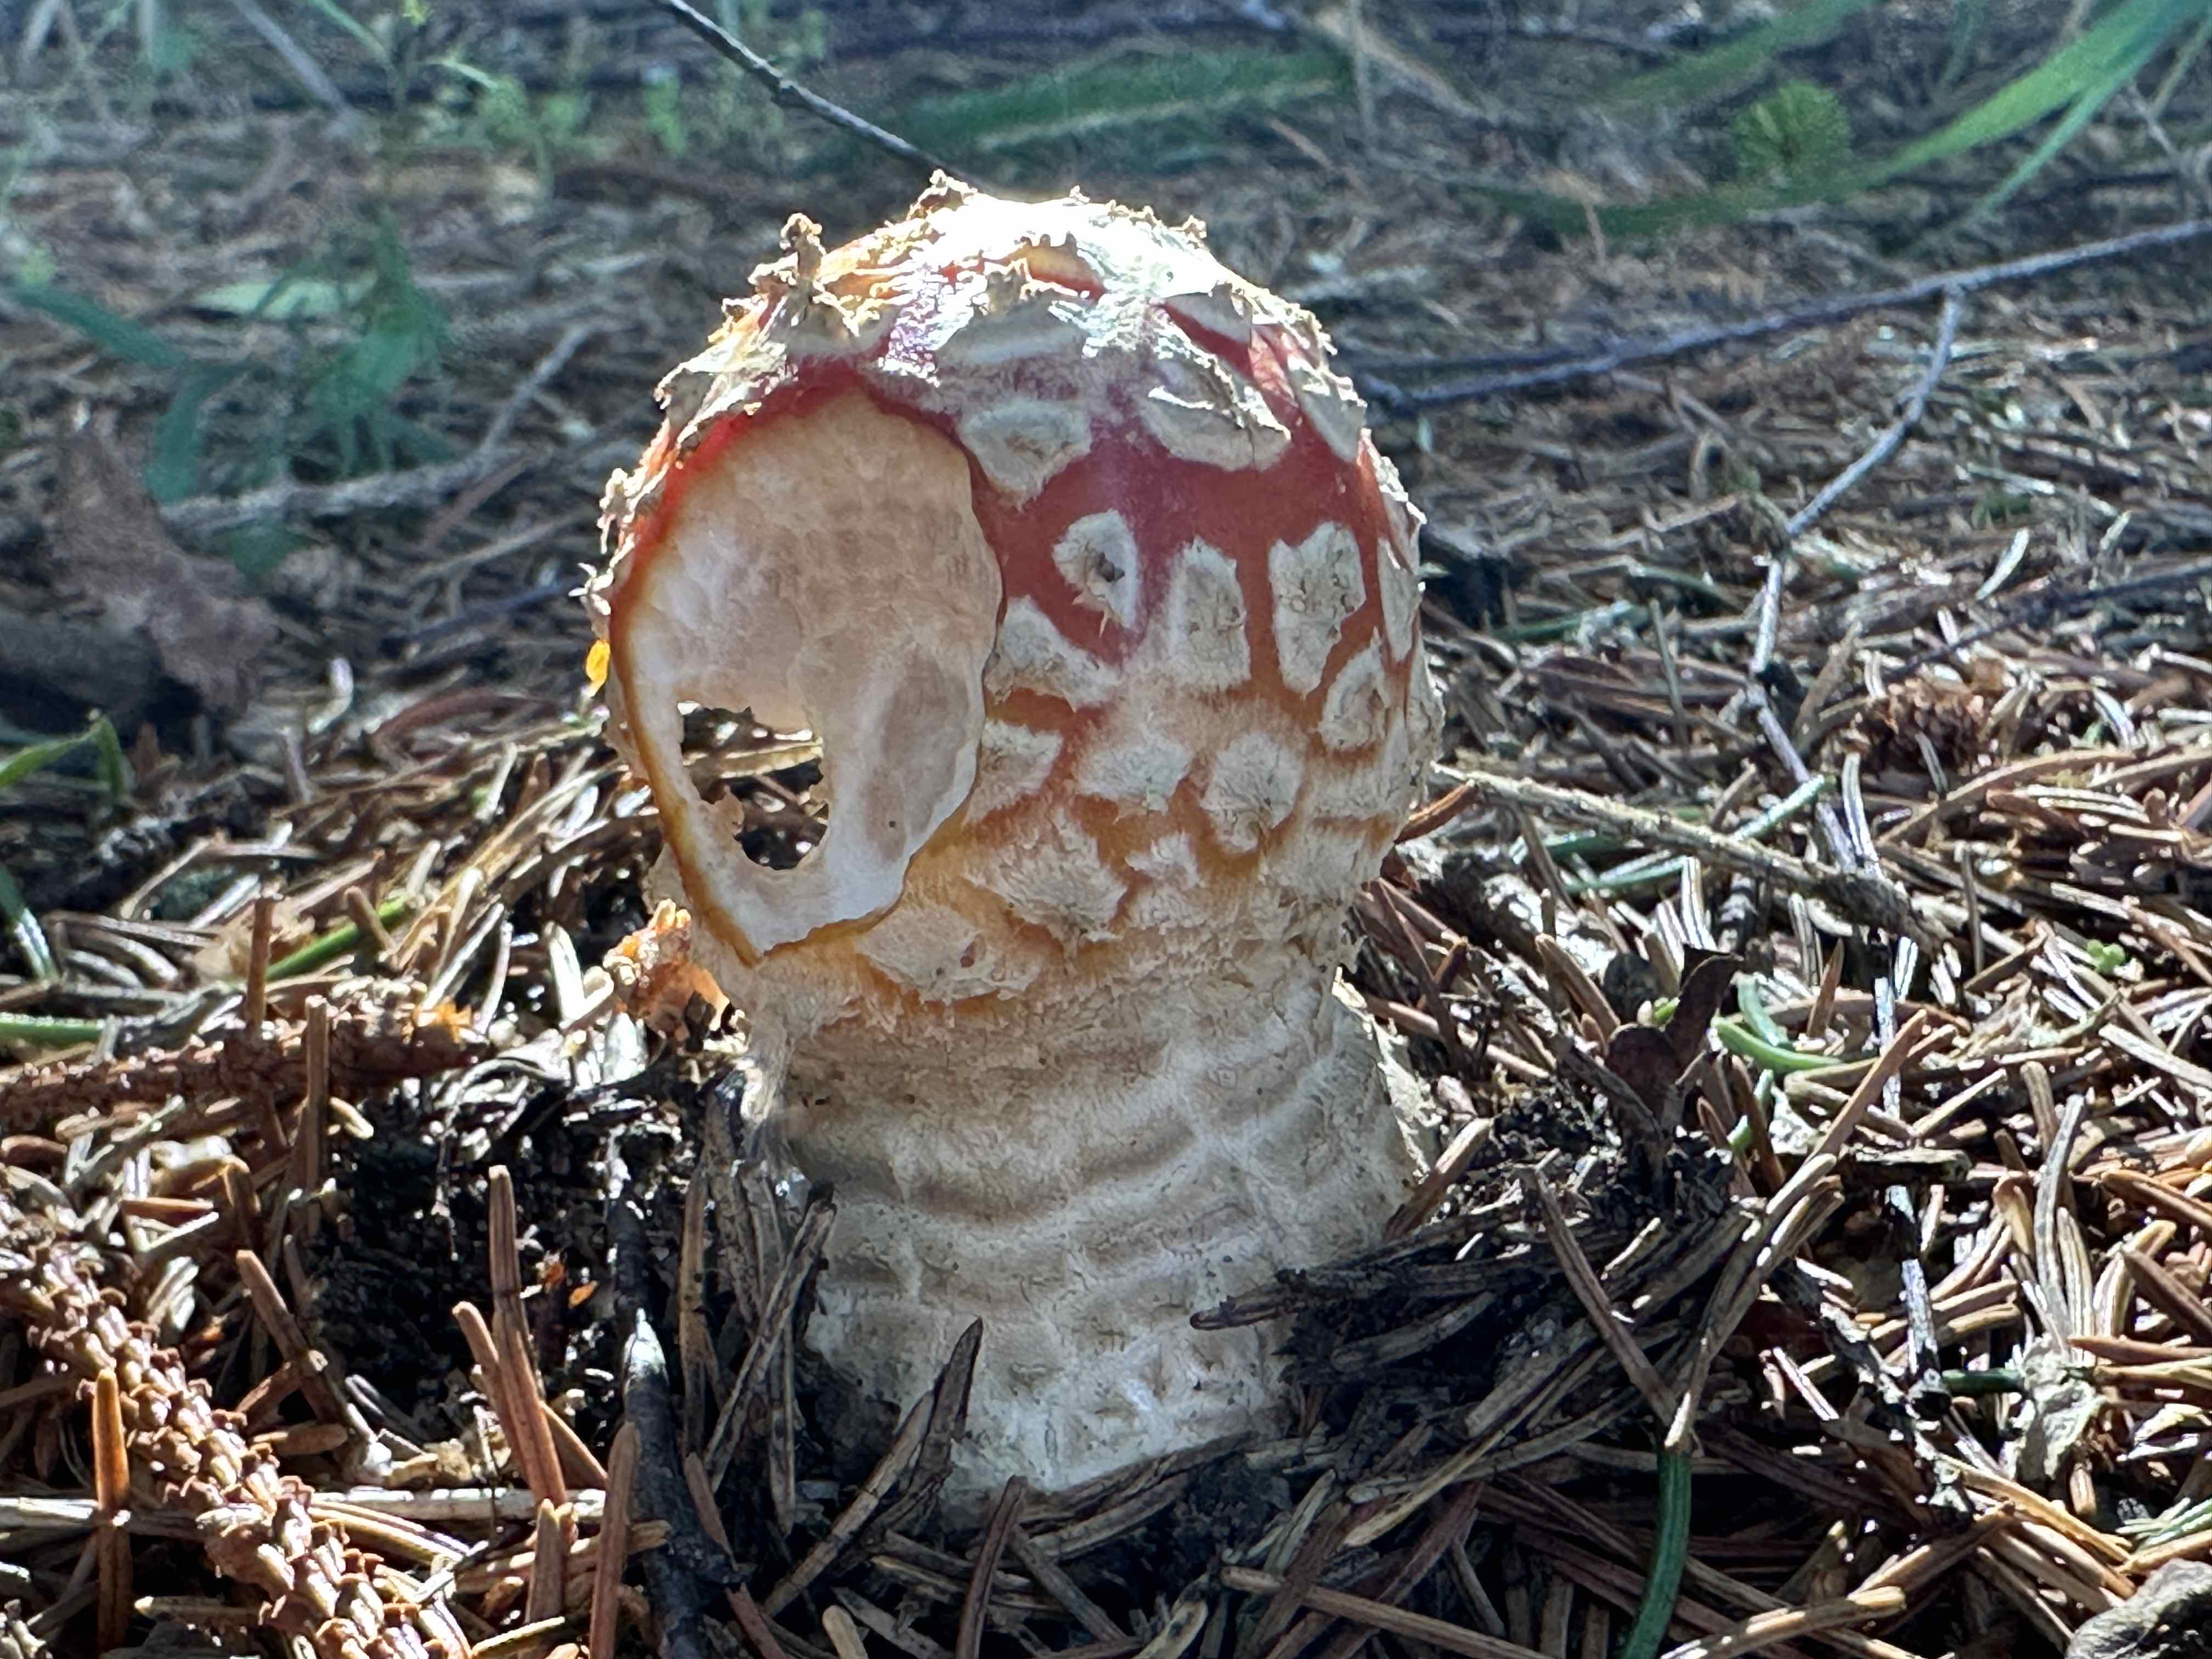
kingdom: Fungi
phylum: Basidiomycota
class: Agaricomycetes
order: Agaricales
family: Amanitaceae
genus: Amanita
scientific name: Amanita muscaria
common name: rød fluesvamp
